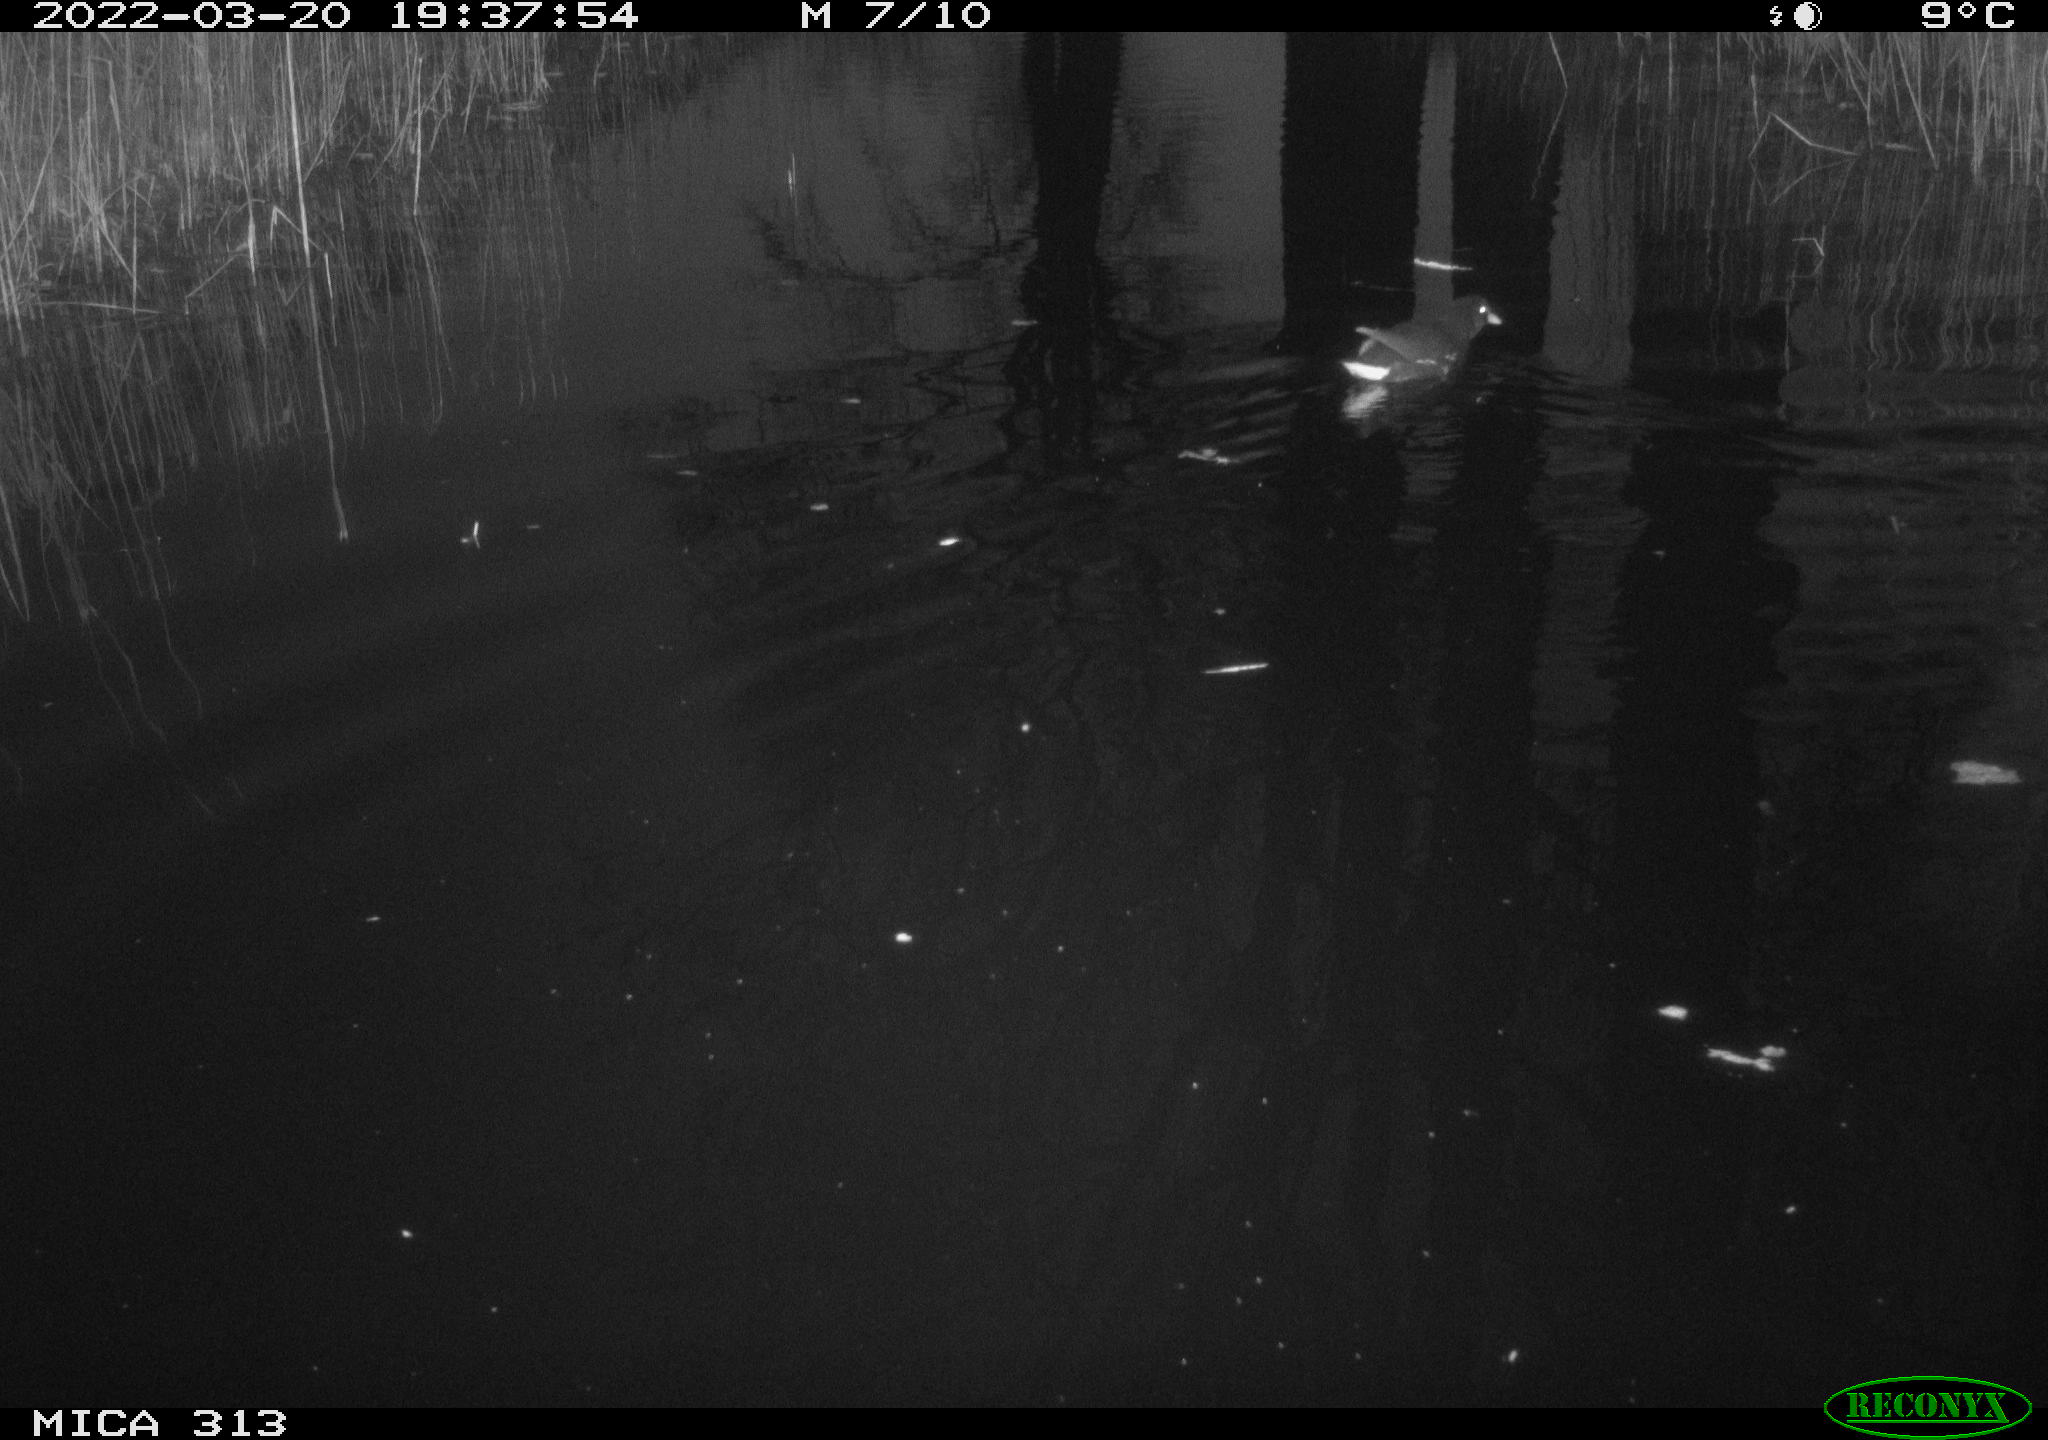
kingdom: Animalia
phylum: Chordata
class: Aves
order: Gruiformes
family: Rallidae
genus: Gallinula
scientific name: Gallinula chloropus
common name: Common moorhen
